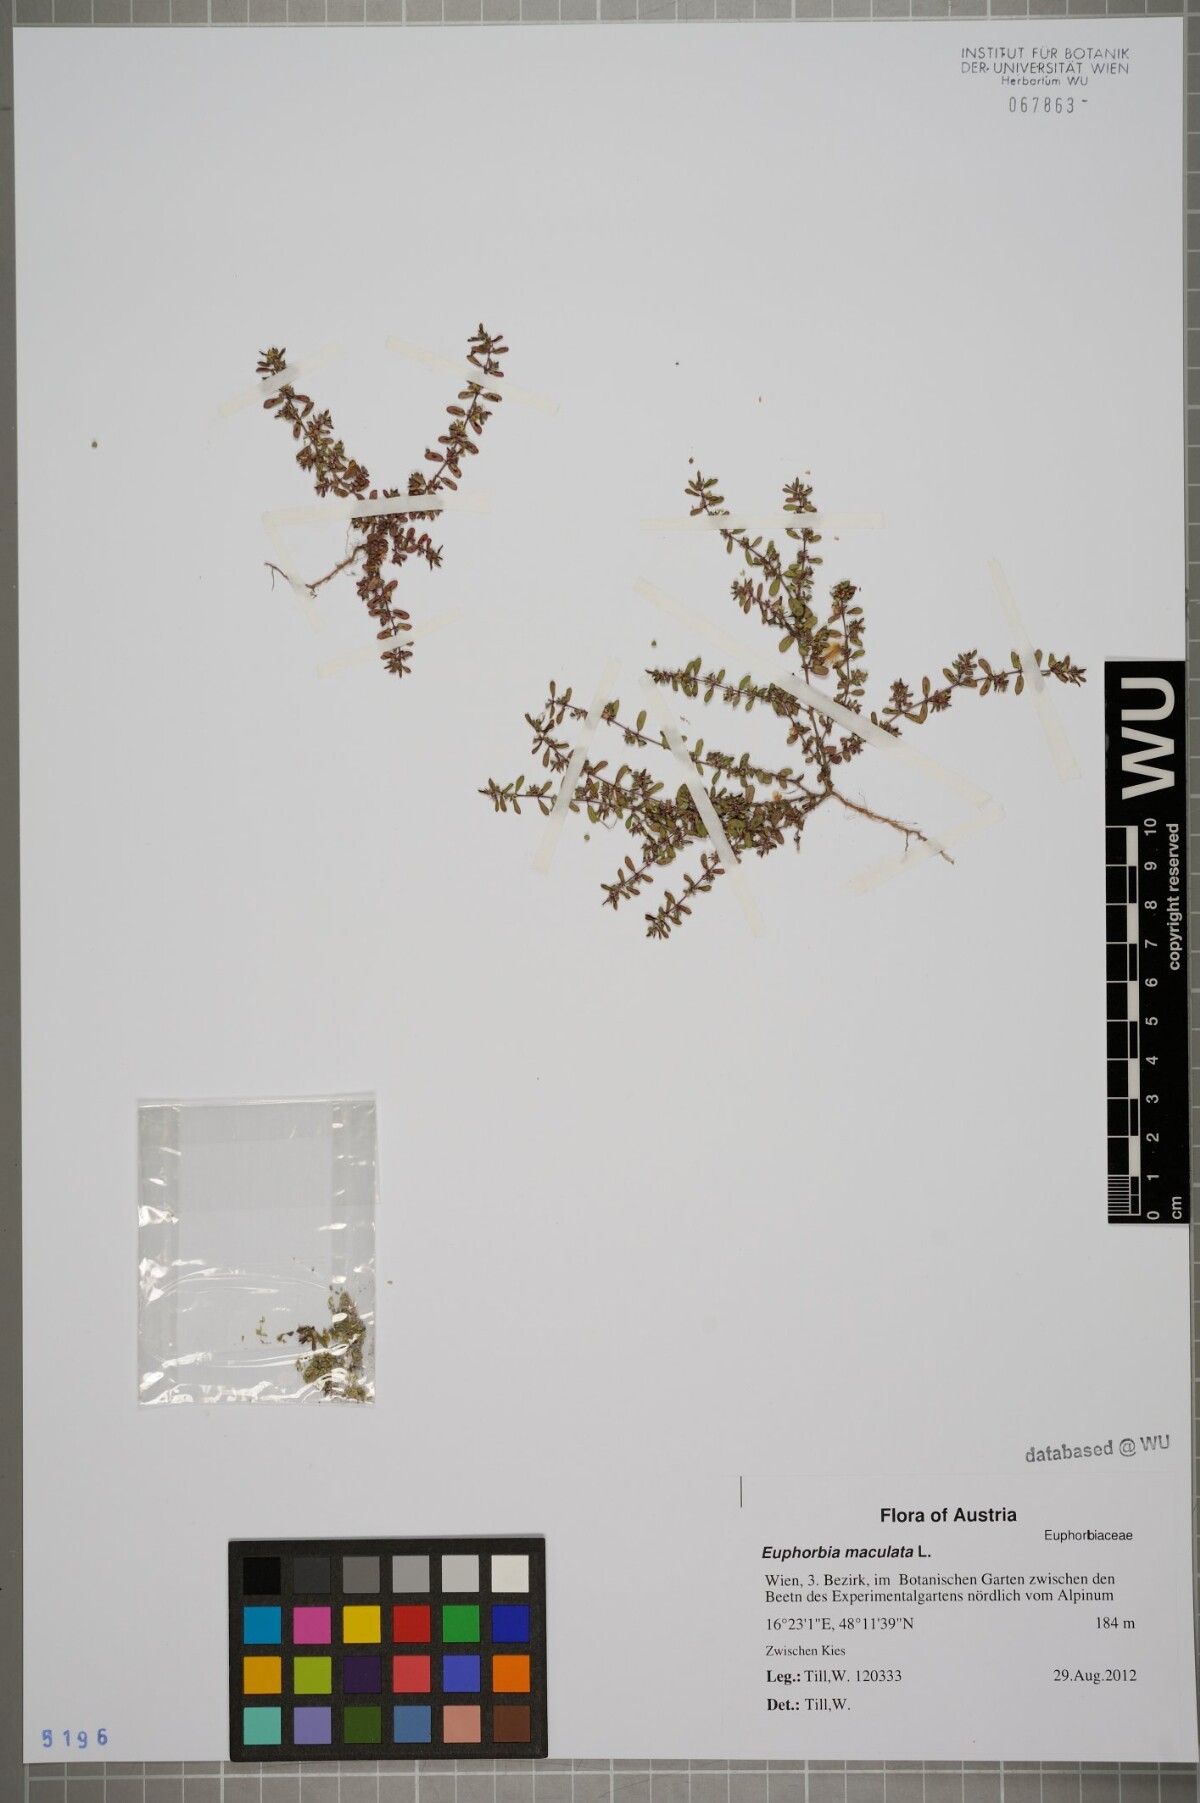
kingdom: Plantae
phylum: Tracheophyta
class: Magnoliopsida
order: Malpighiales
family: Euphorbiaceae
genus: Euphorbia
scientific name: Euphorbia maculata
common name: Spotted spurge
